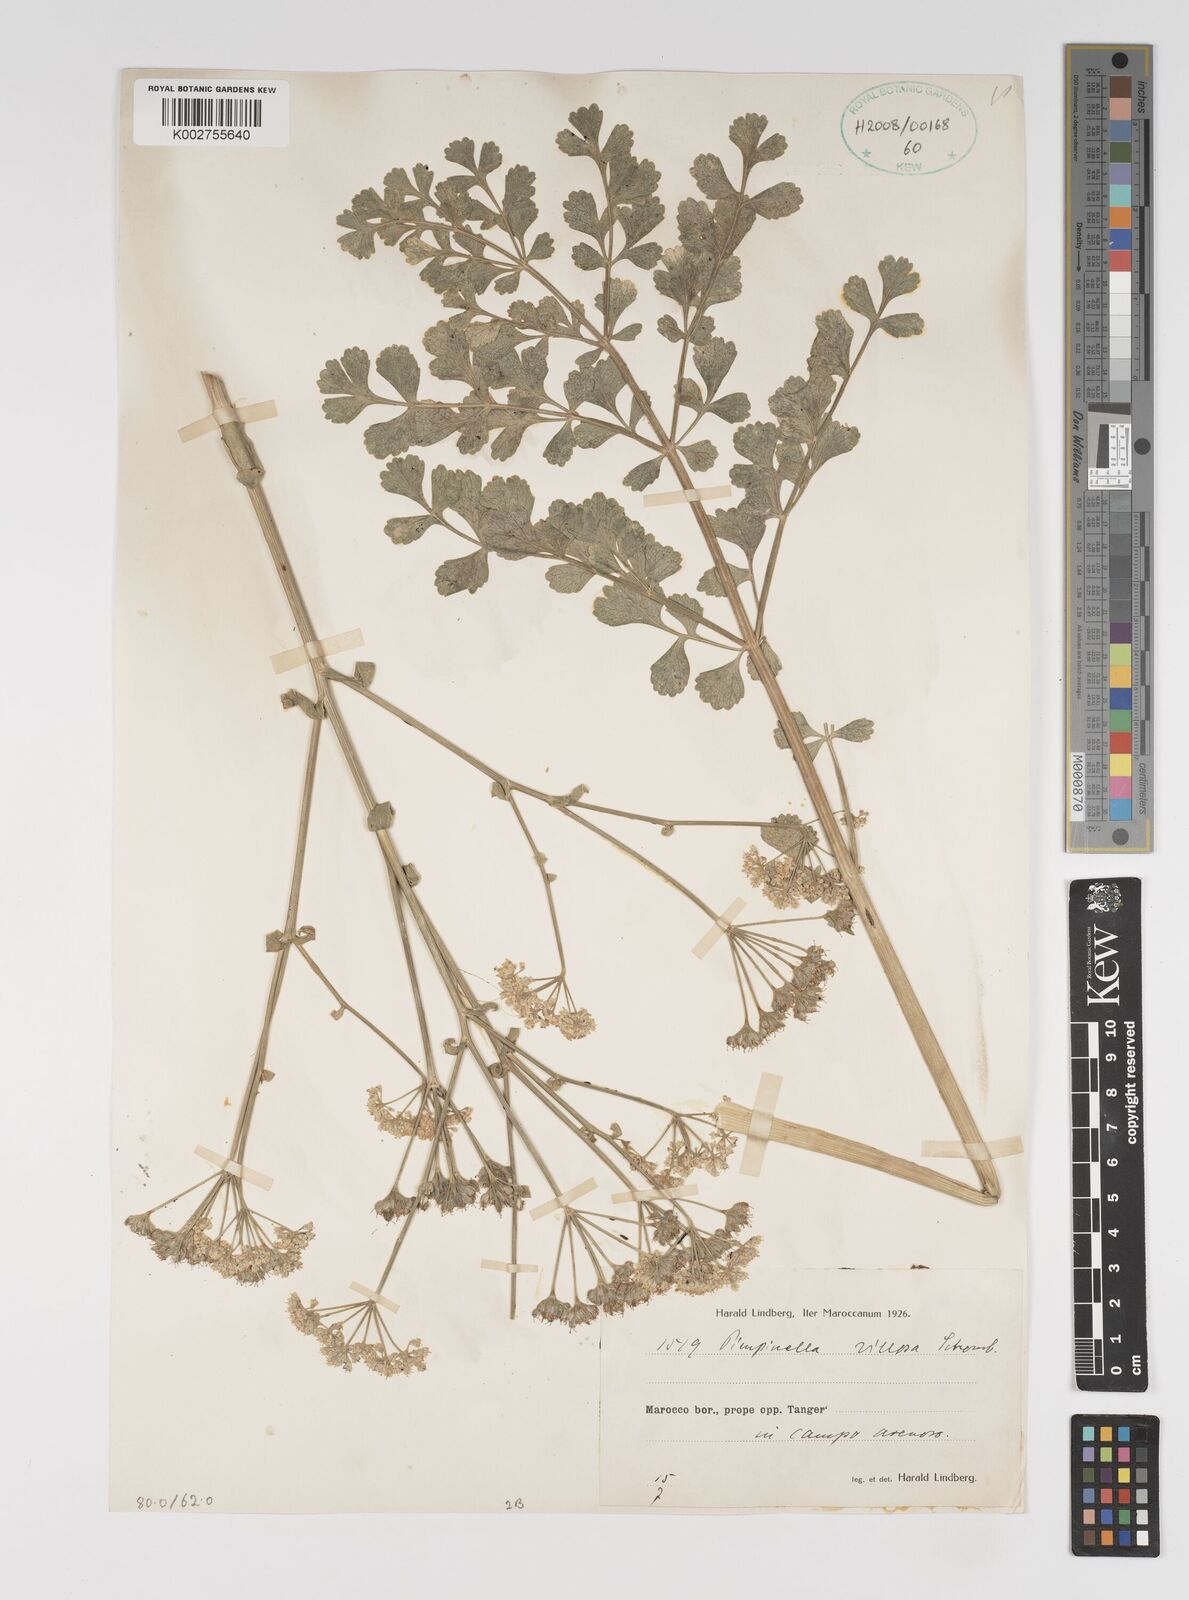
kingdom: Plantae
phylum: Tracheophyta
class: Magnoliopsida
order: Apiales
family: Apiaceae
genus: Pimpinella
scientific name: Pimpinella villosa
